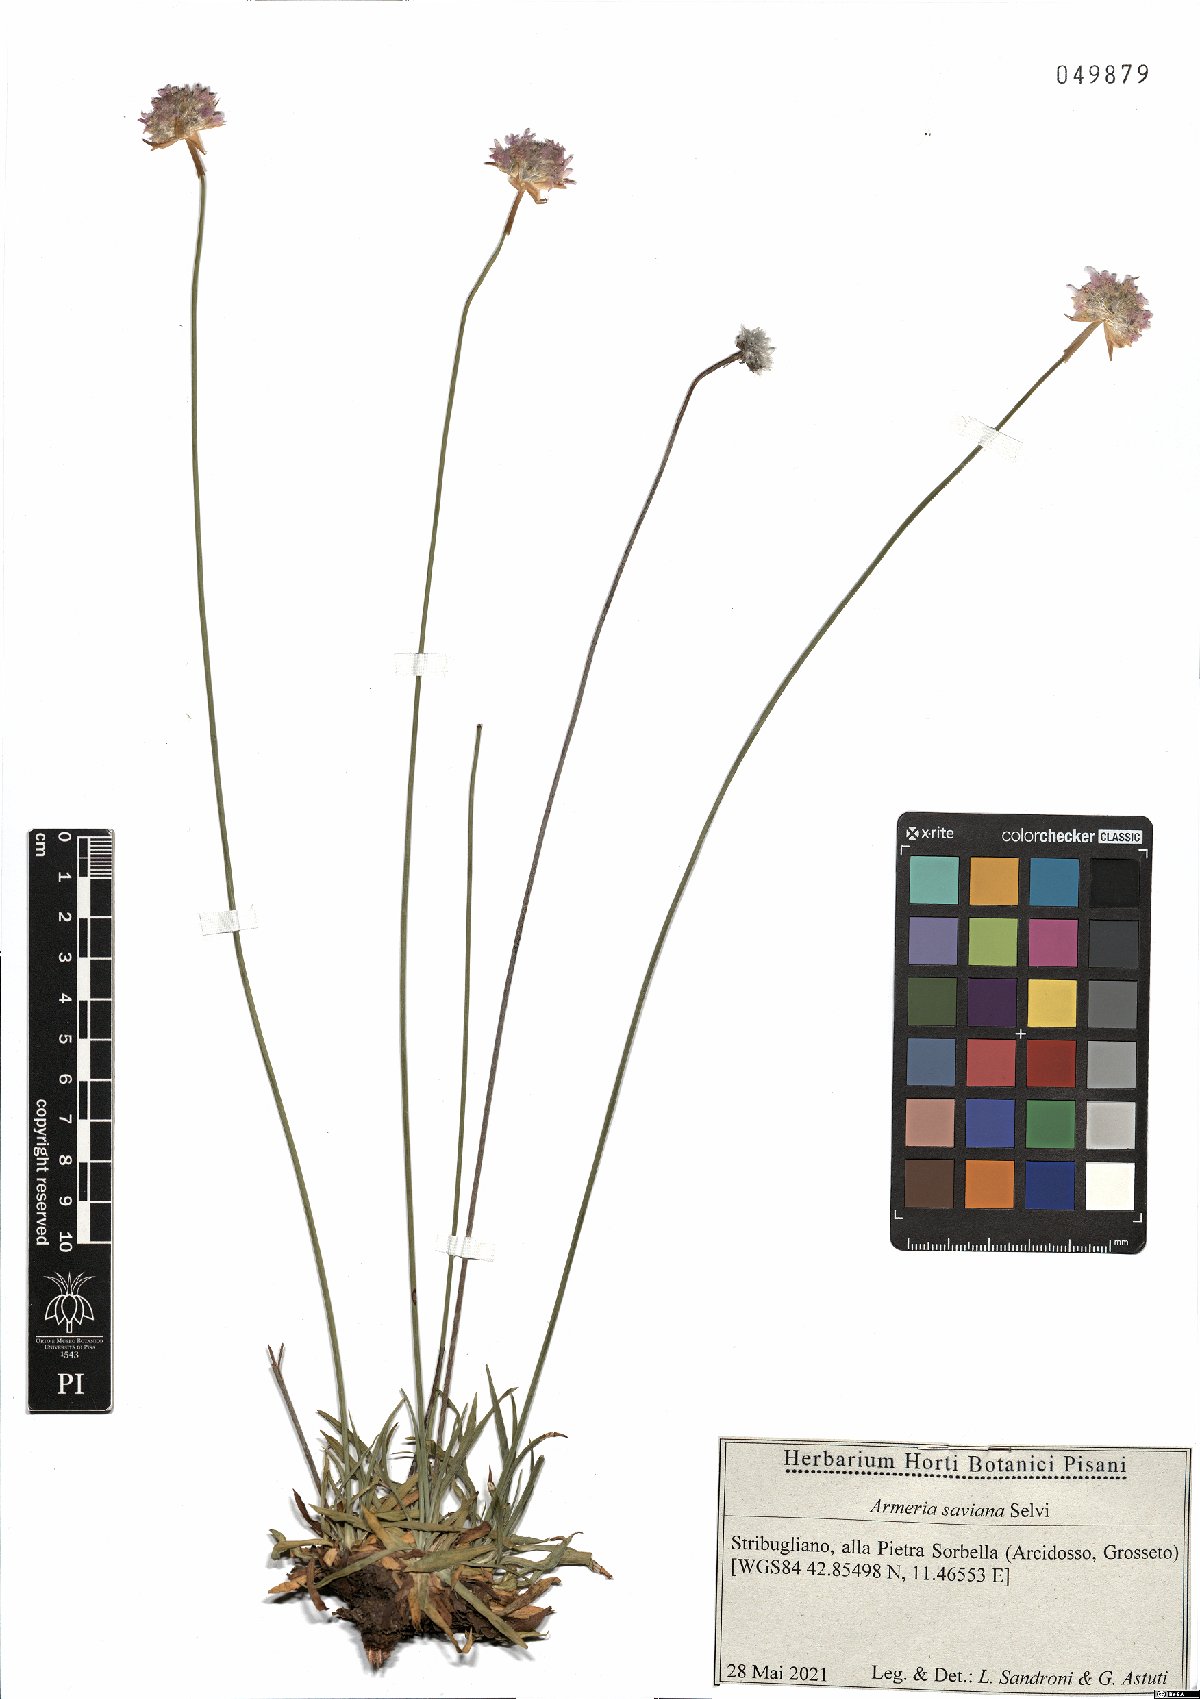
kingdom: Plantae
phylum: Tracheophyta
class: Magnoliopsida
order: Caryophyllales
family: Plumbaginaceae
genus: Armeria
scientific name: Armeria saviana
